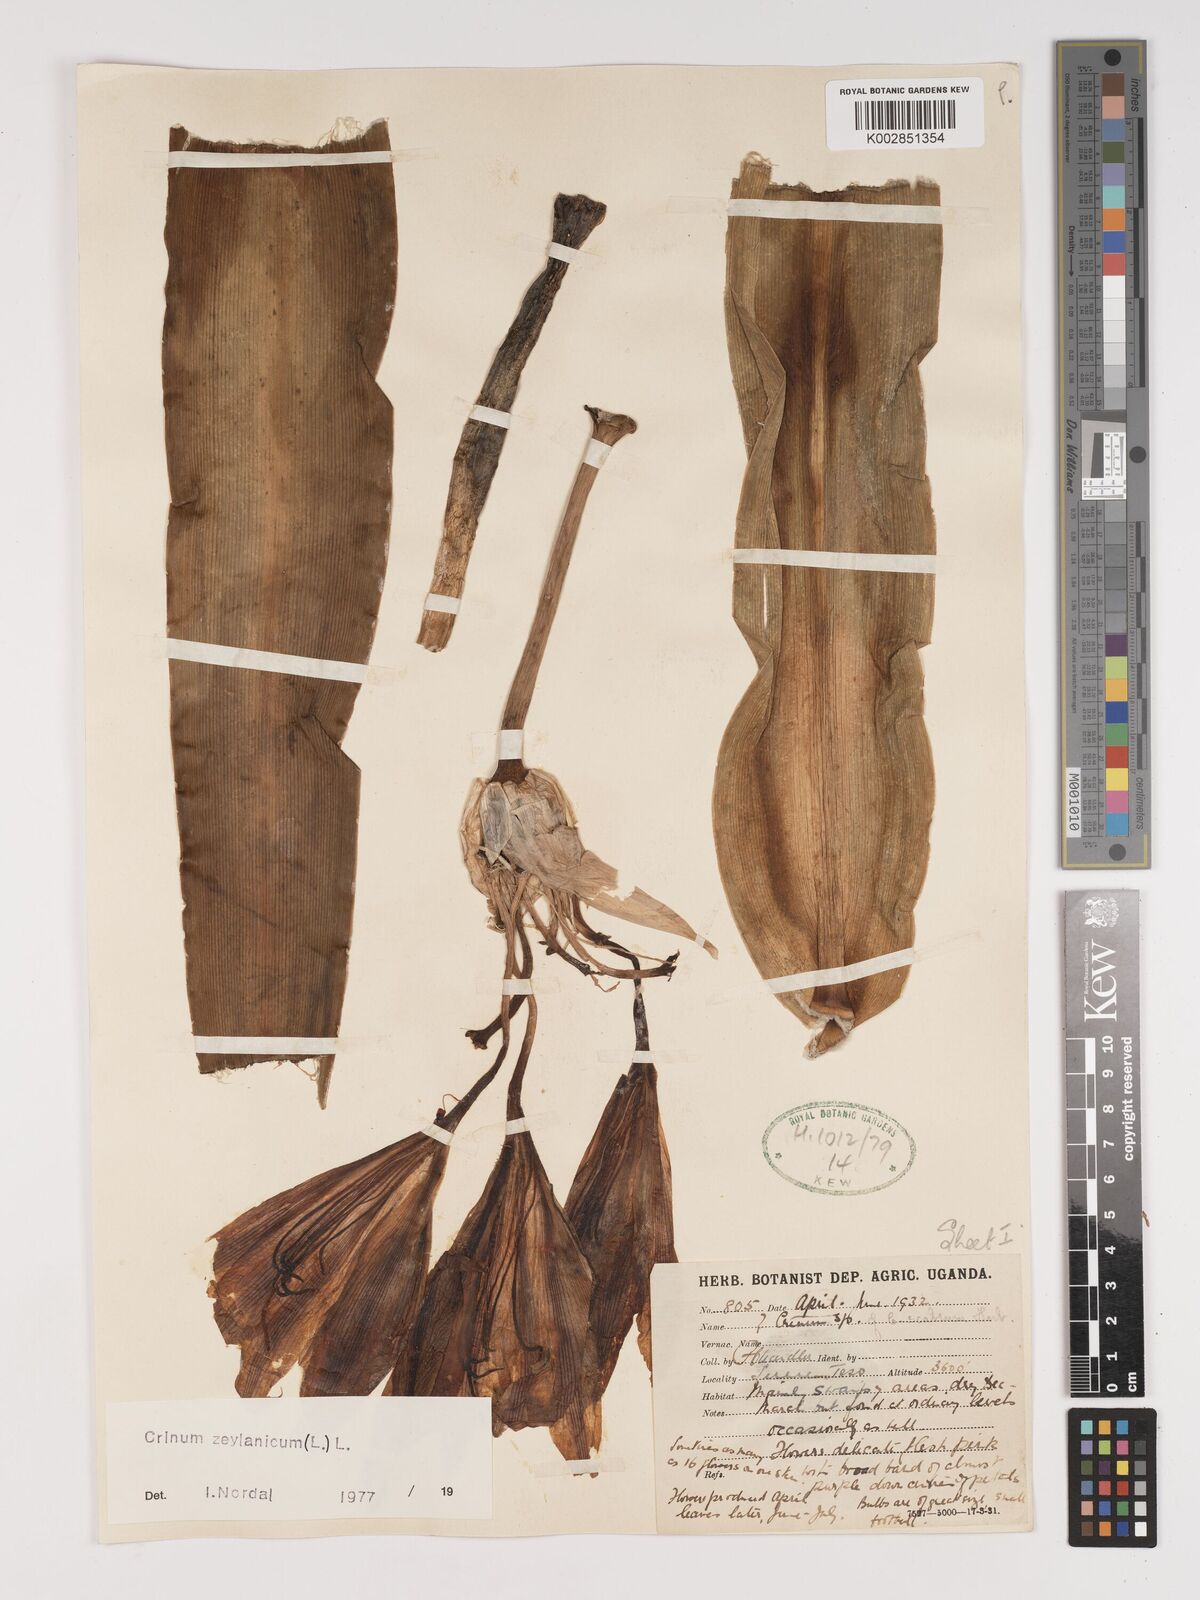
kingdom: Plantae
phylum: Tracheophyta
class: Liliopsida
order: Asparagales
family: Amaryllidaceae
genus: Crinum
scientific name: Crinum zeylanicum
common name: Ceylon swamplily
